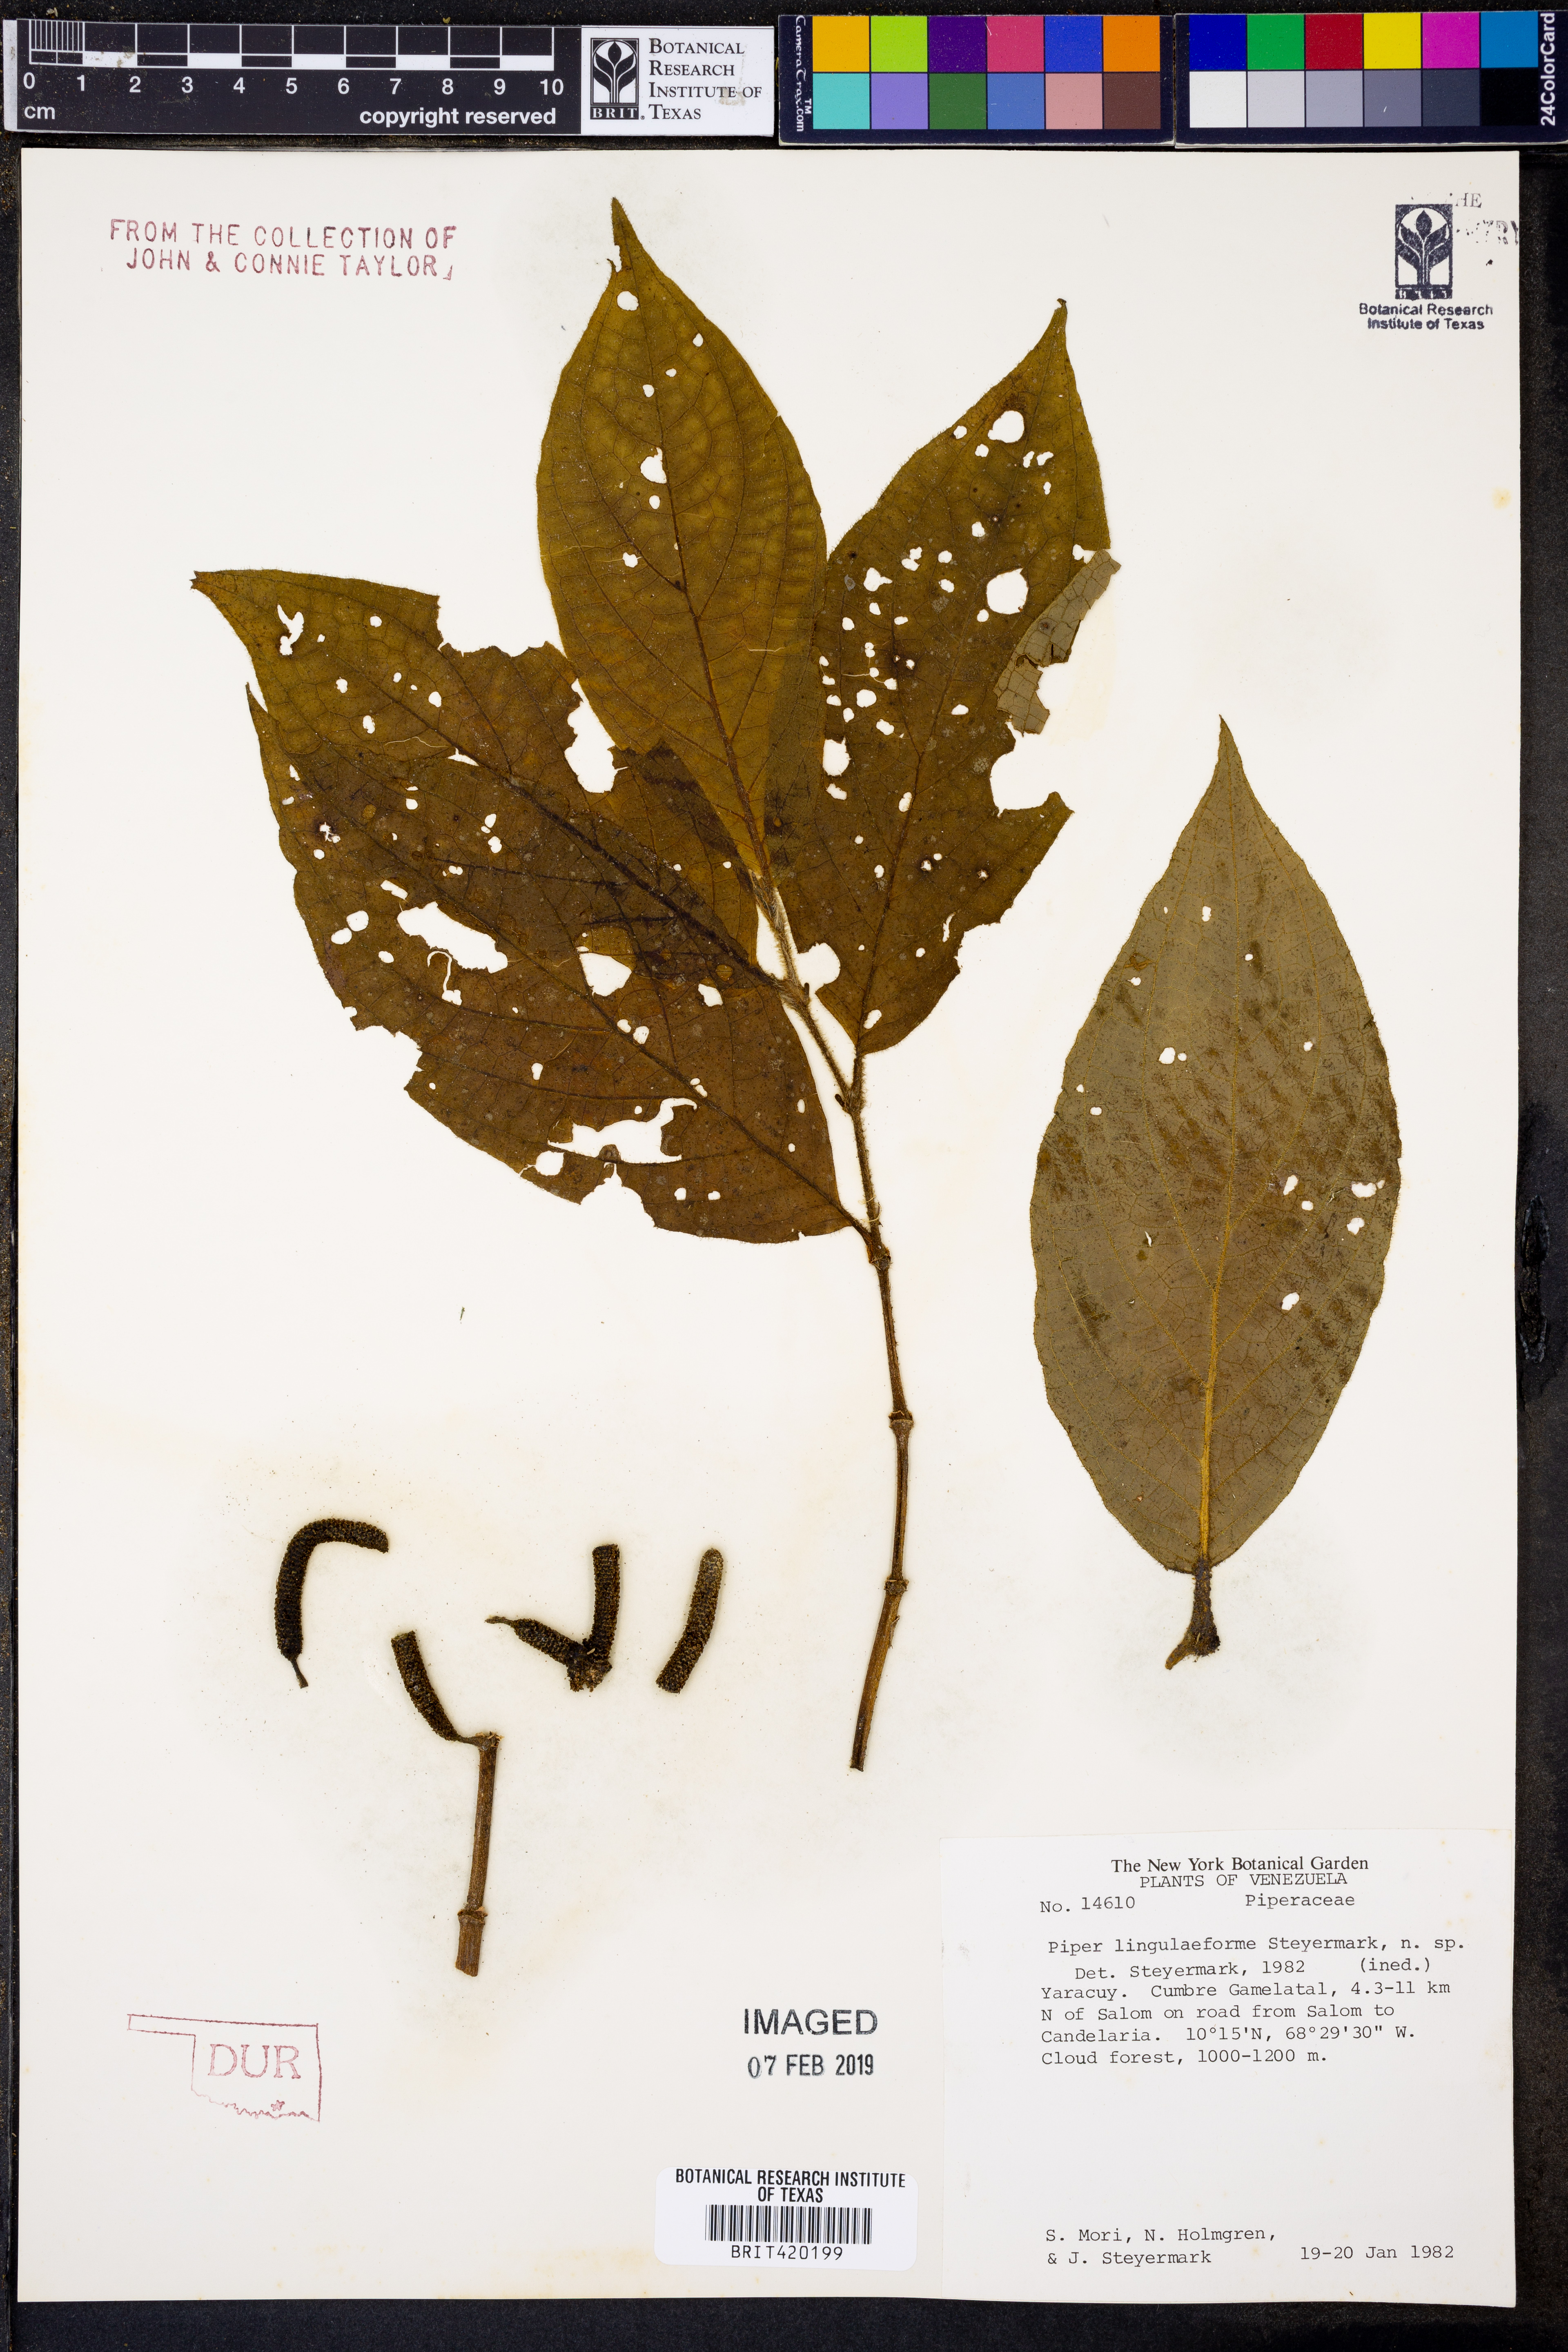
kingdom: Plantae
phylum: Tracheophyta
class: Magnoliopsida
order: Piperales
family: Piperaceae
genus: Piper
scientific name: Piper linguliforme
